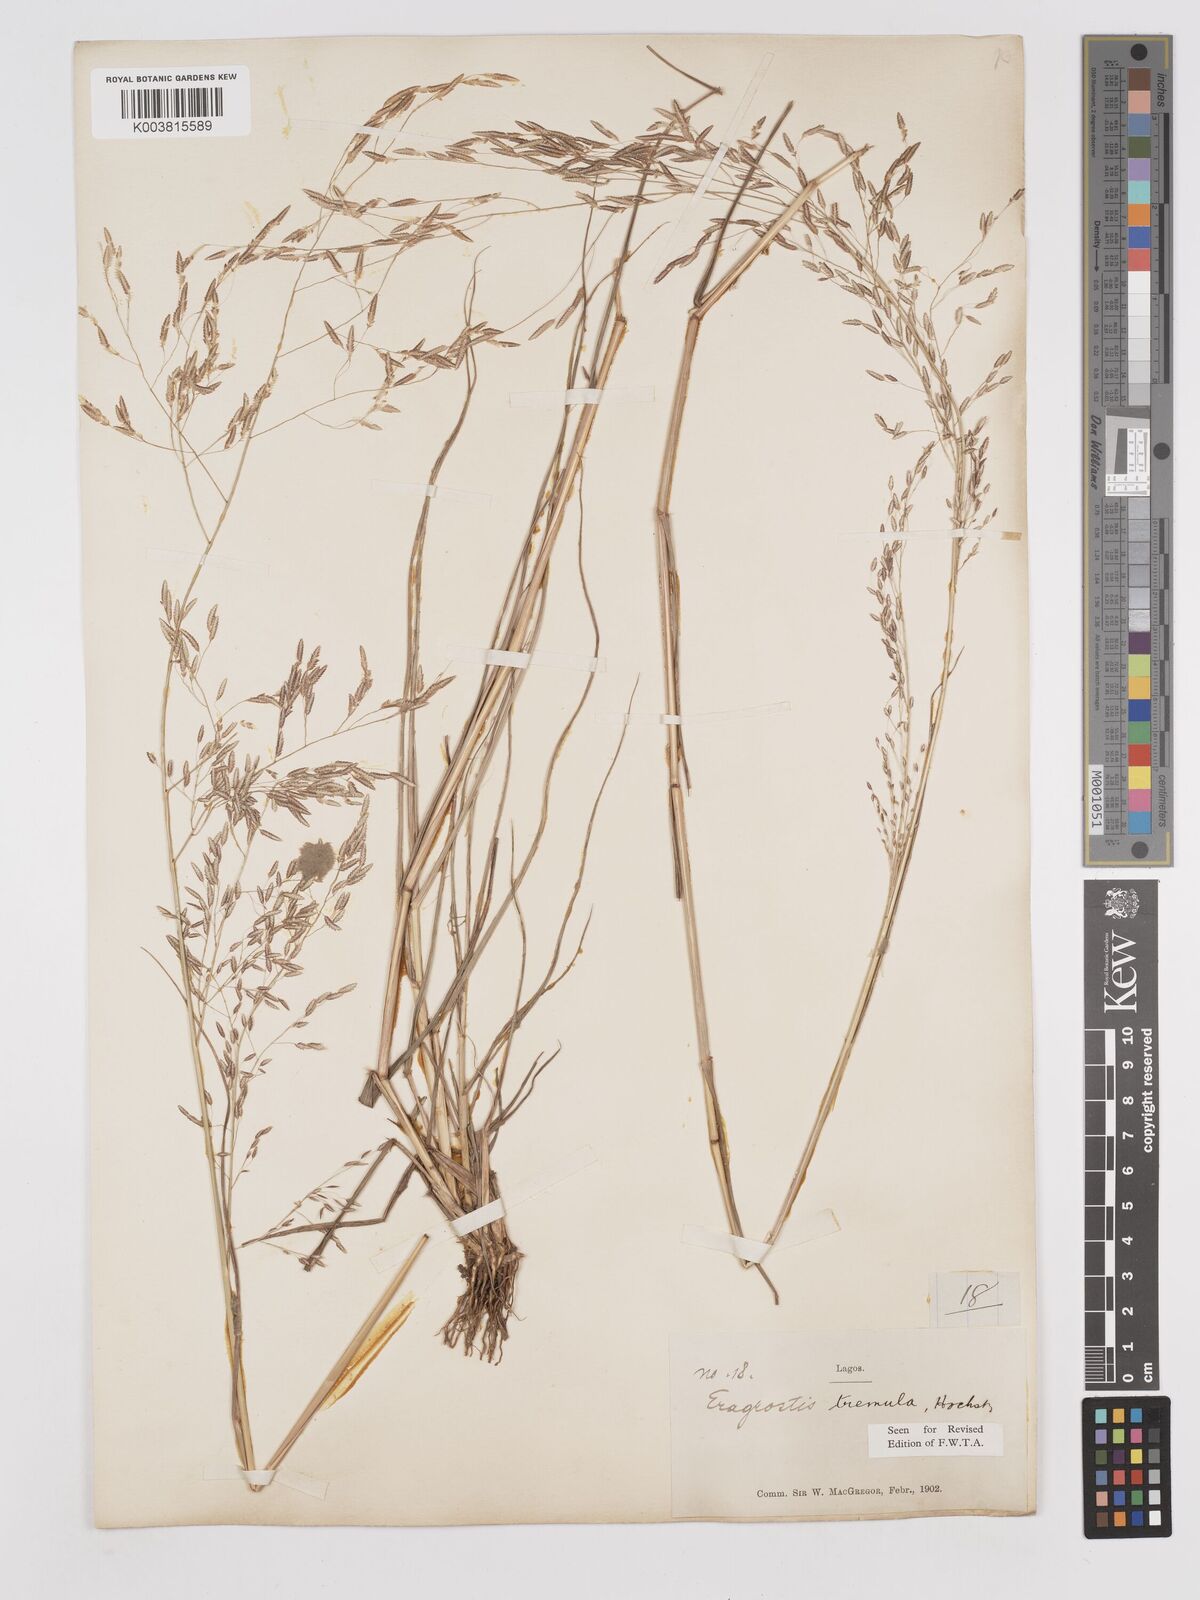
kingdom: Plantae
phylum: Tracheophyta
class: Liliopsida
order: Poales
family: Poaceae
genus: Eragrostis
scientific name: Eragrostis tremula
